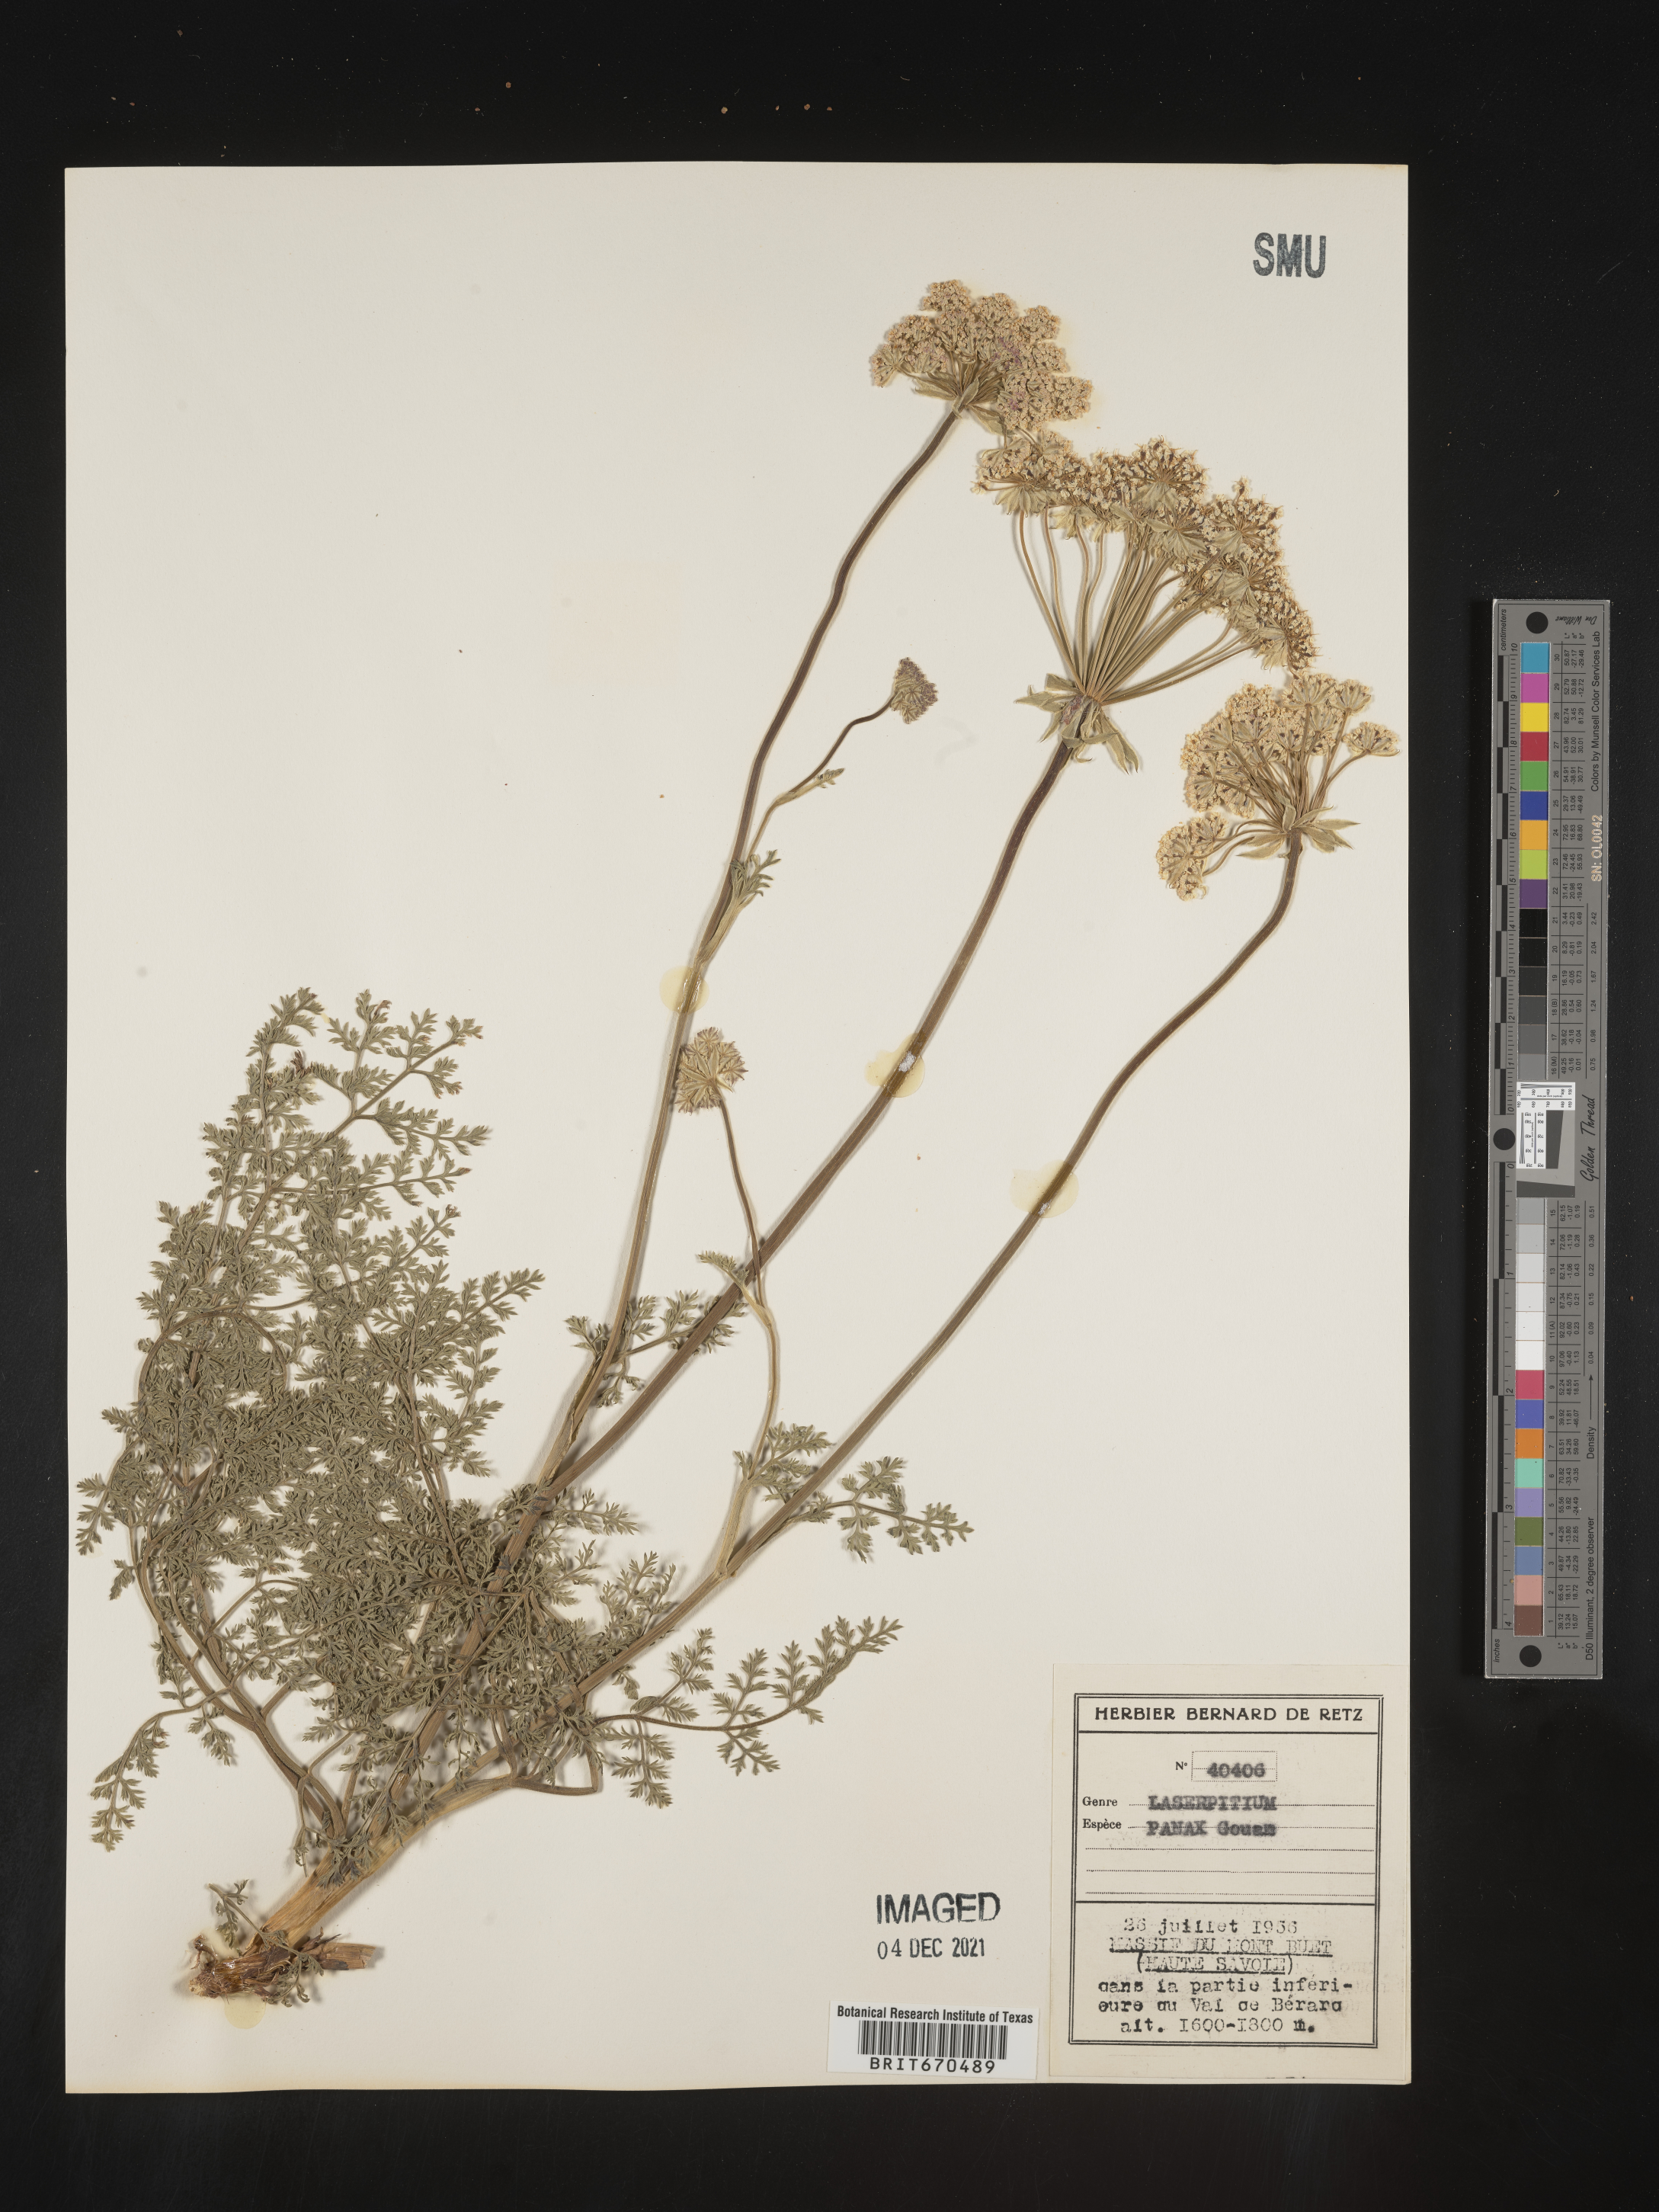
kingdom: Plantae
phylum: Tracheophyta
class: Magnoliopsida
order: Apiales
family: Apiaceae
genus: Laserpitium
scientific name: Laserpitium
